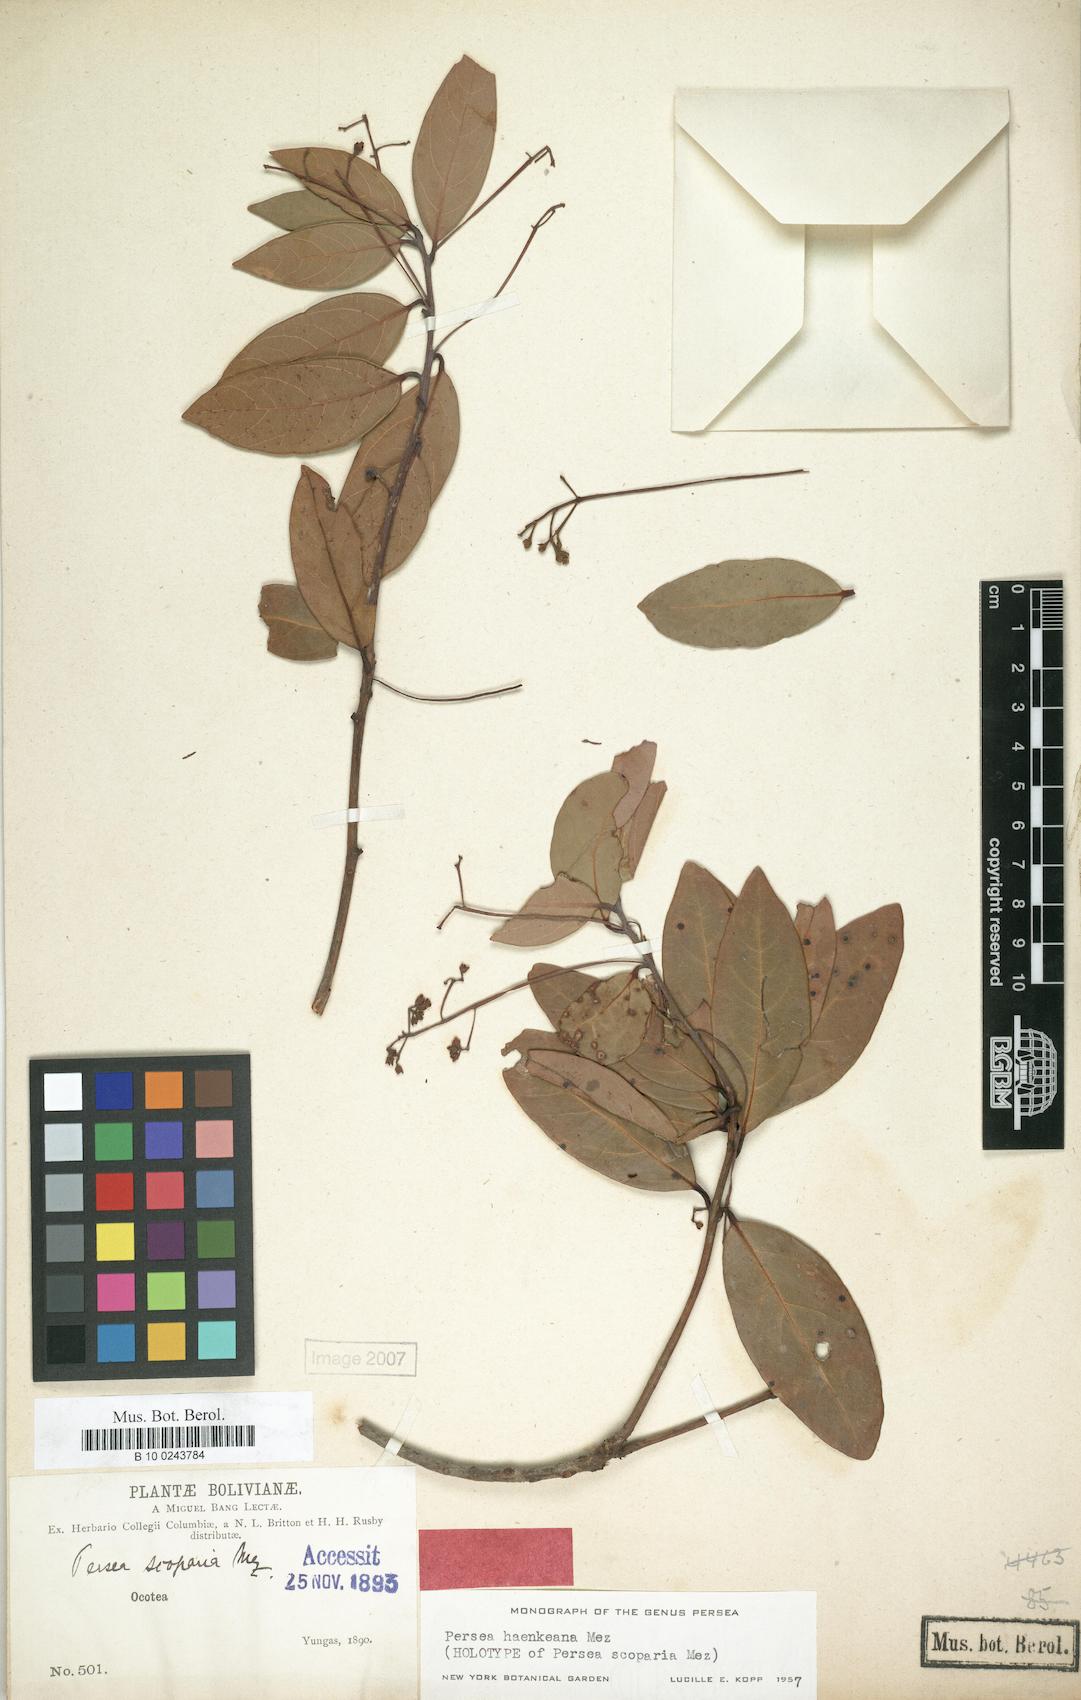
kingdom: Plantae
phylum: Tracheophyta
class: Magnoliopsida
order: Laurales
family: Lauraceae
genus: Persea
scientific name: Persea haenkeana
